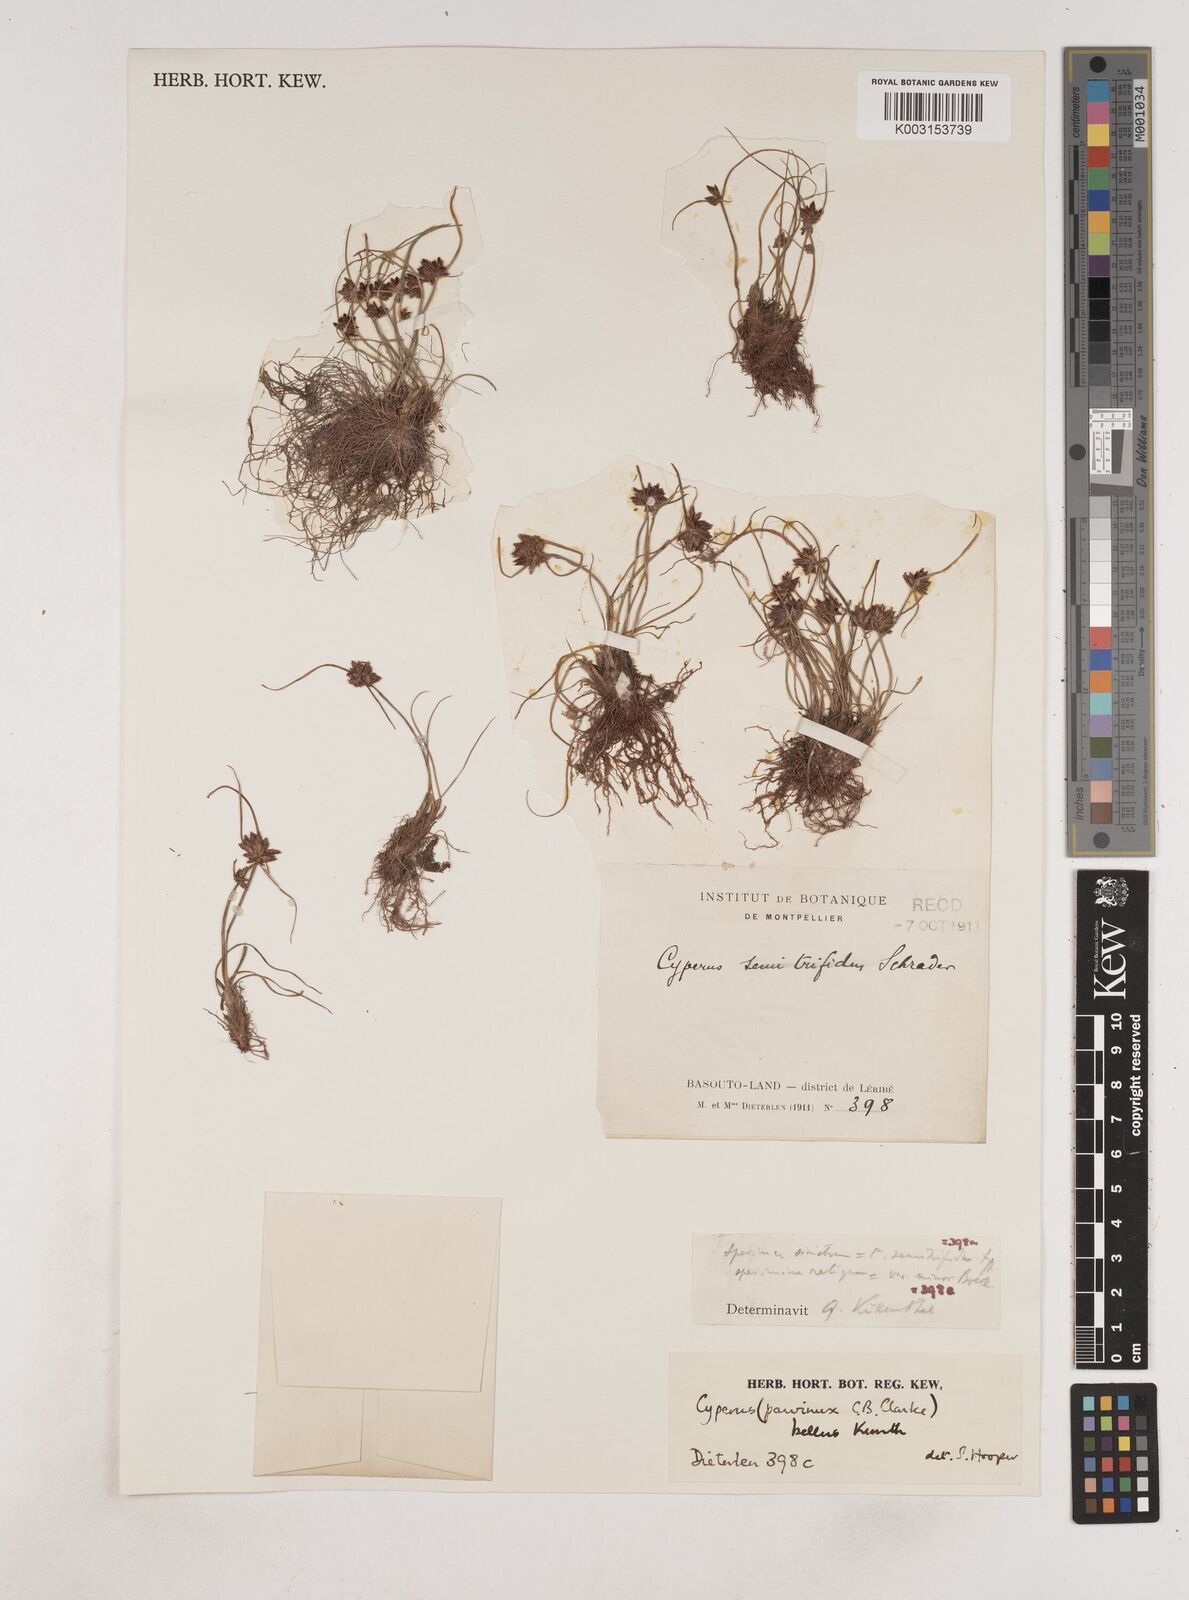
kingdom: Plantae
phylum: Tracheophyta
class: Liliopsida
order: Poales
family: Cyperaceae
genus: Cyperus
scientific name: Cyperus bellus
